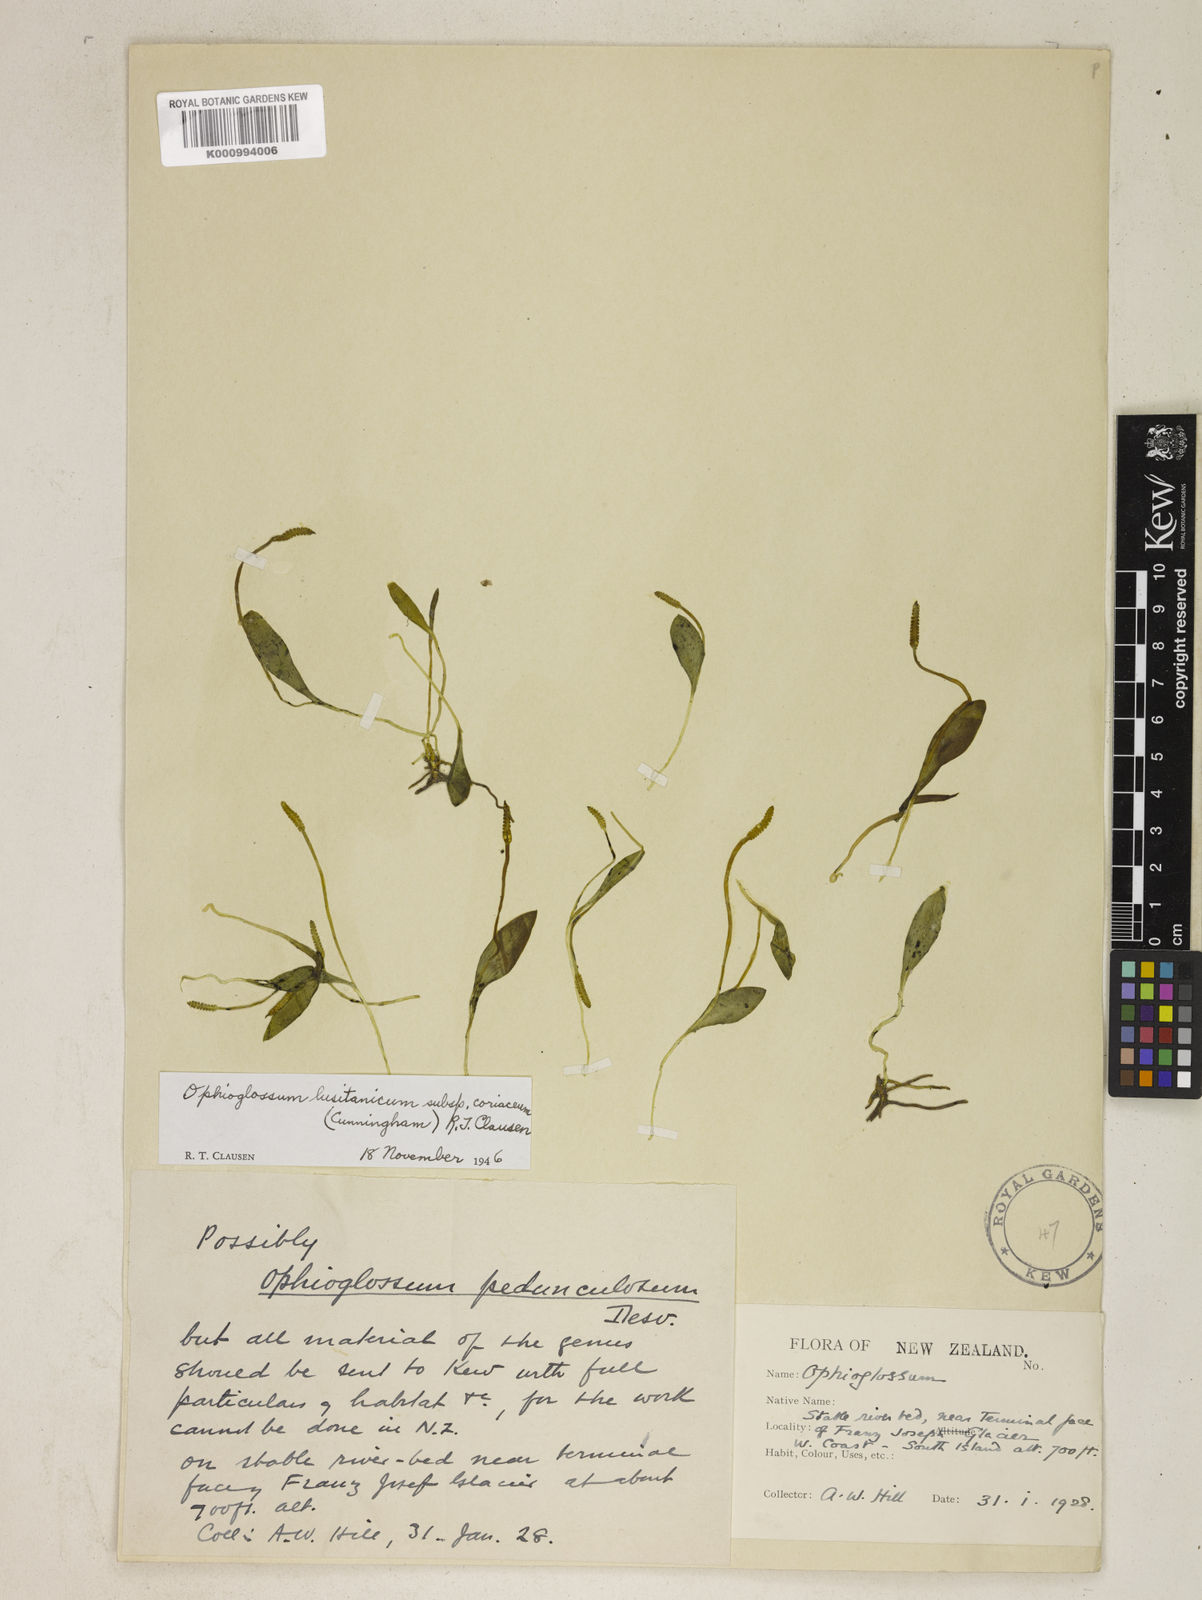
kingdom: Plantae
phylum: Tracheophyta
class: Polypodiopsida
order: Ophioglossales
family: Ophioglossaceae
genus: Ophioglossum
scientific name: Ophioglossum coriaceum
